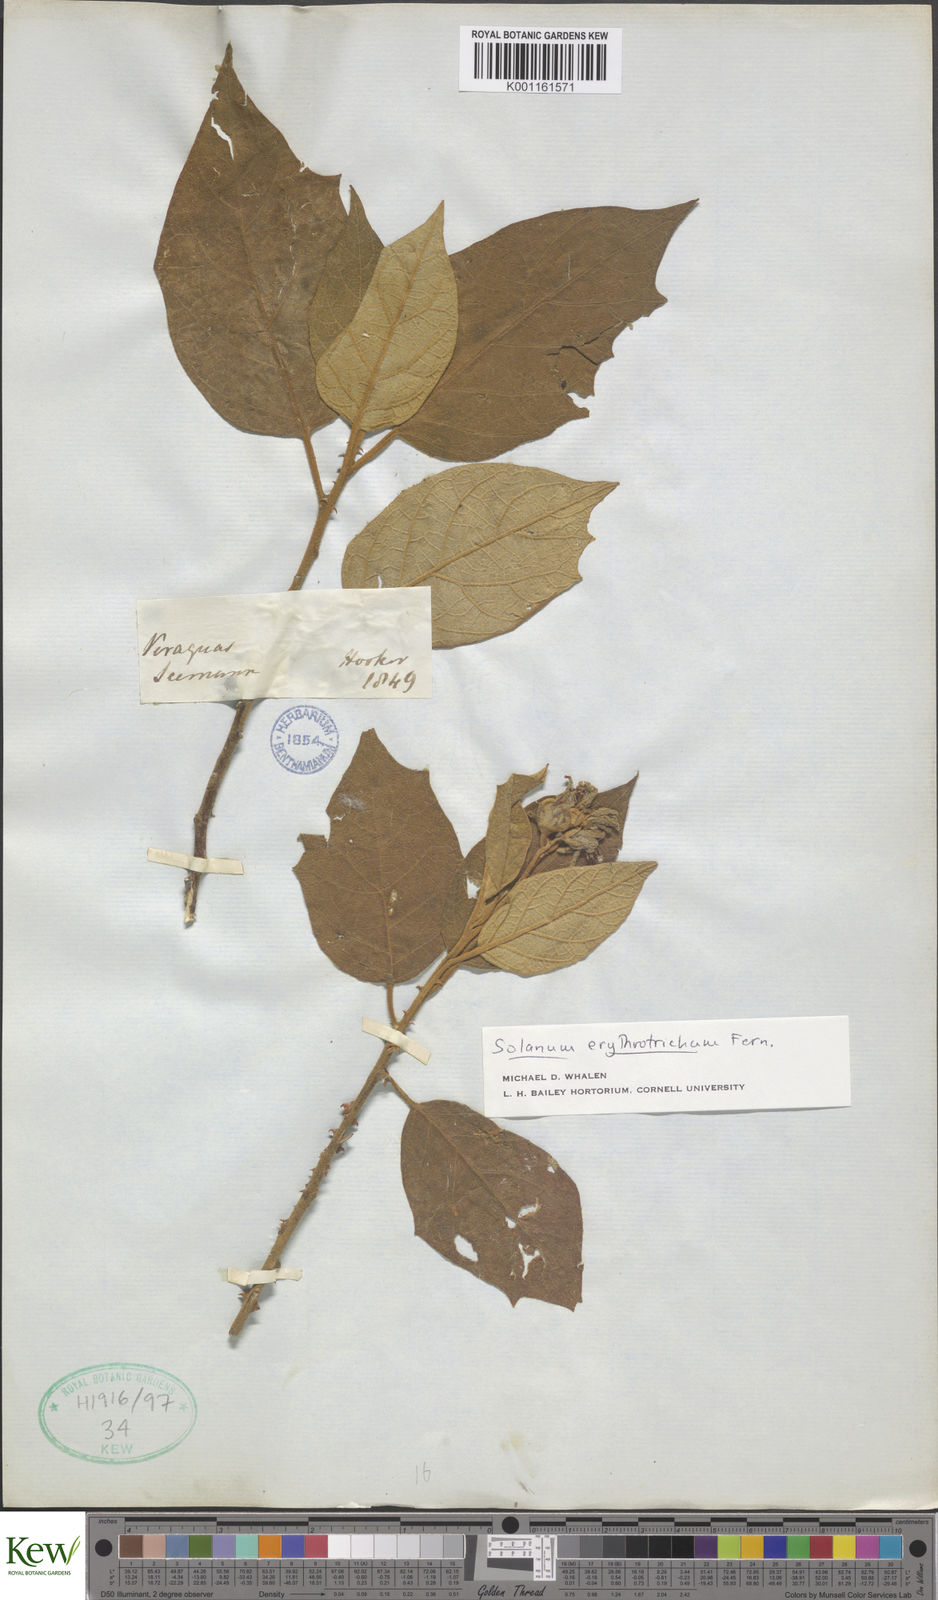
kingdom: Plantae
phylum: Tracheophyta
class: Magnoliopsida
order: Solanales
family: Solanaceae
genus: Solanum
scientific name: Solanum erythrotrichum
